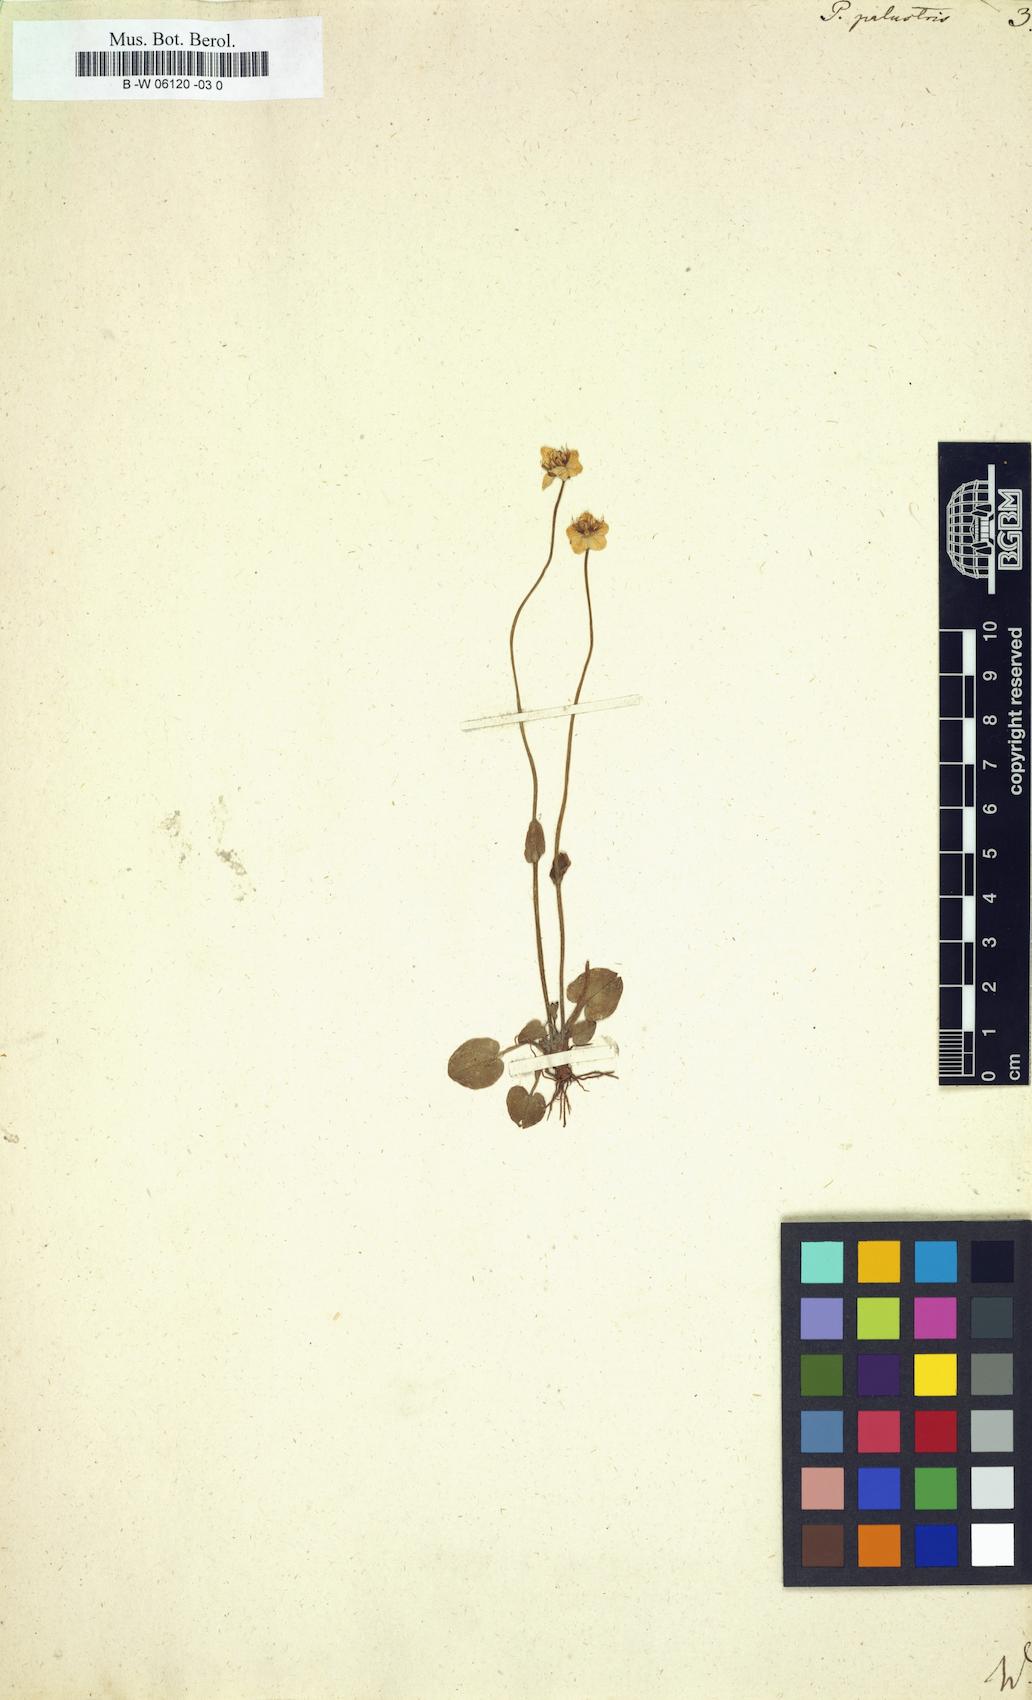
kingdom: Plantae
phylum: Tracheophyta
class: Magnoliopsida
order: Celastrales
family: Parnassiaceae
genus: Parnassia
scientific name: Parnassia palustris
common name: Grass-of-parnassus
